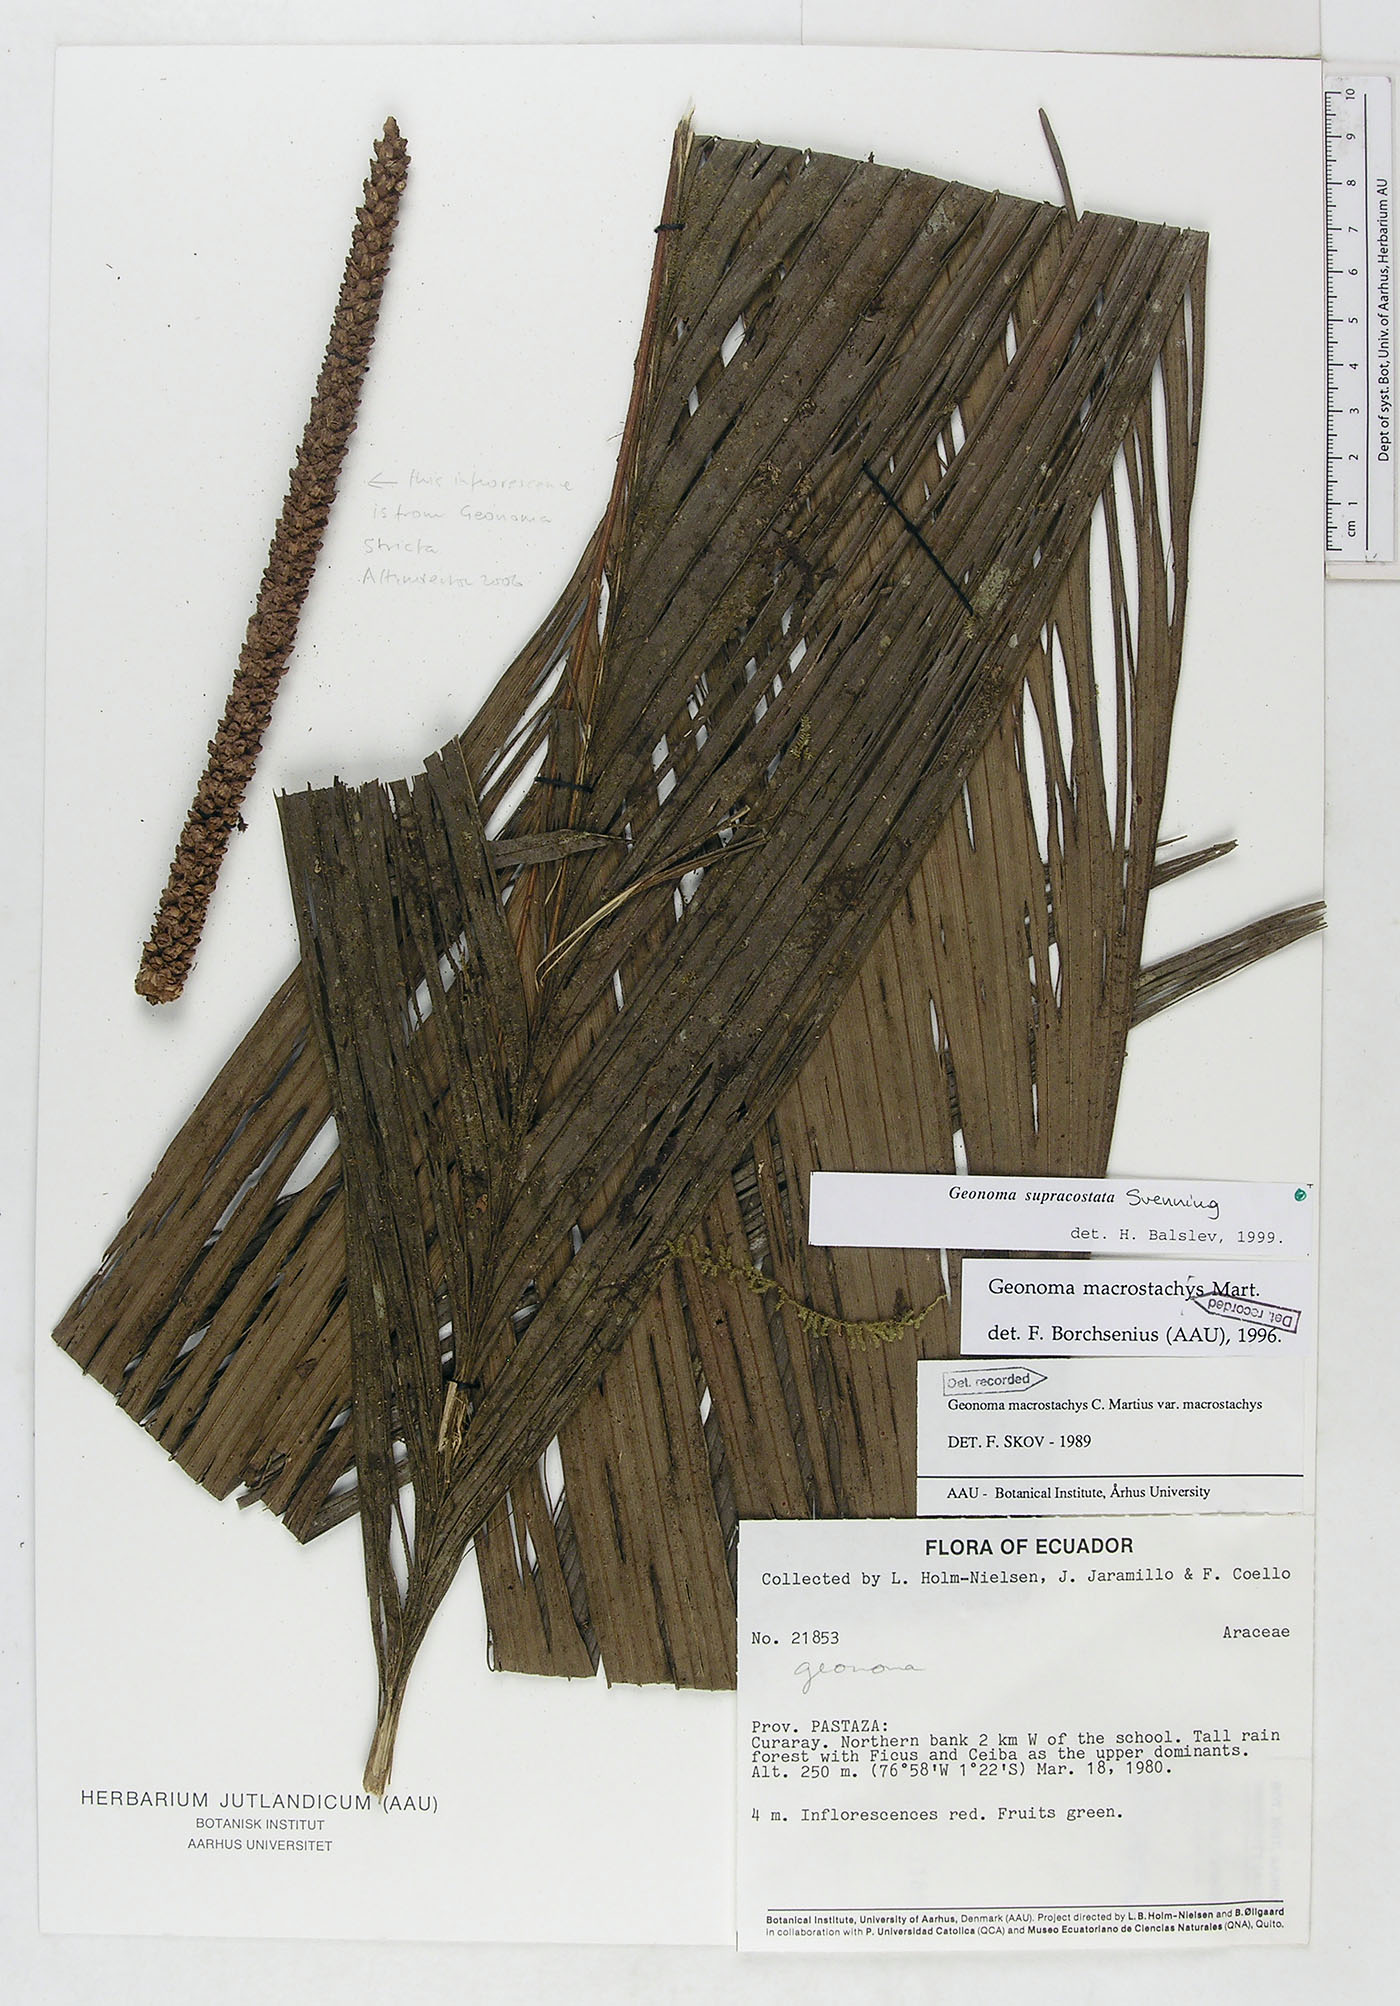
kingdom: Plantae
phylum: Tracheophyta
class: Liliopsida
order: Arecales
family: Arecaceae
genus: Geonoma
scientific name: Geonoma macrostachys
